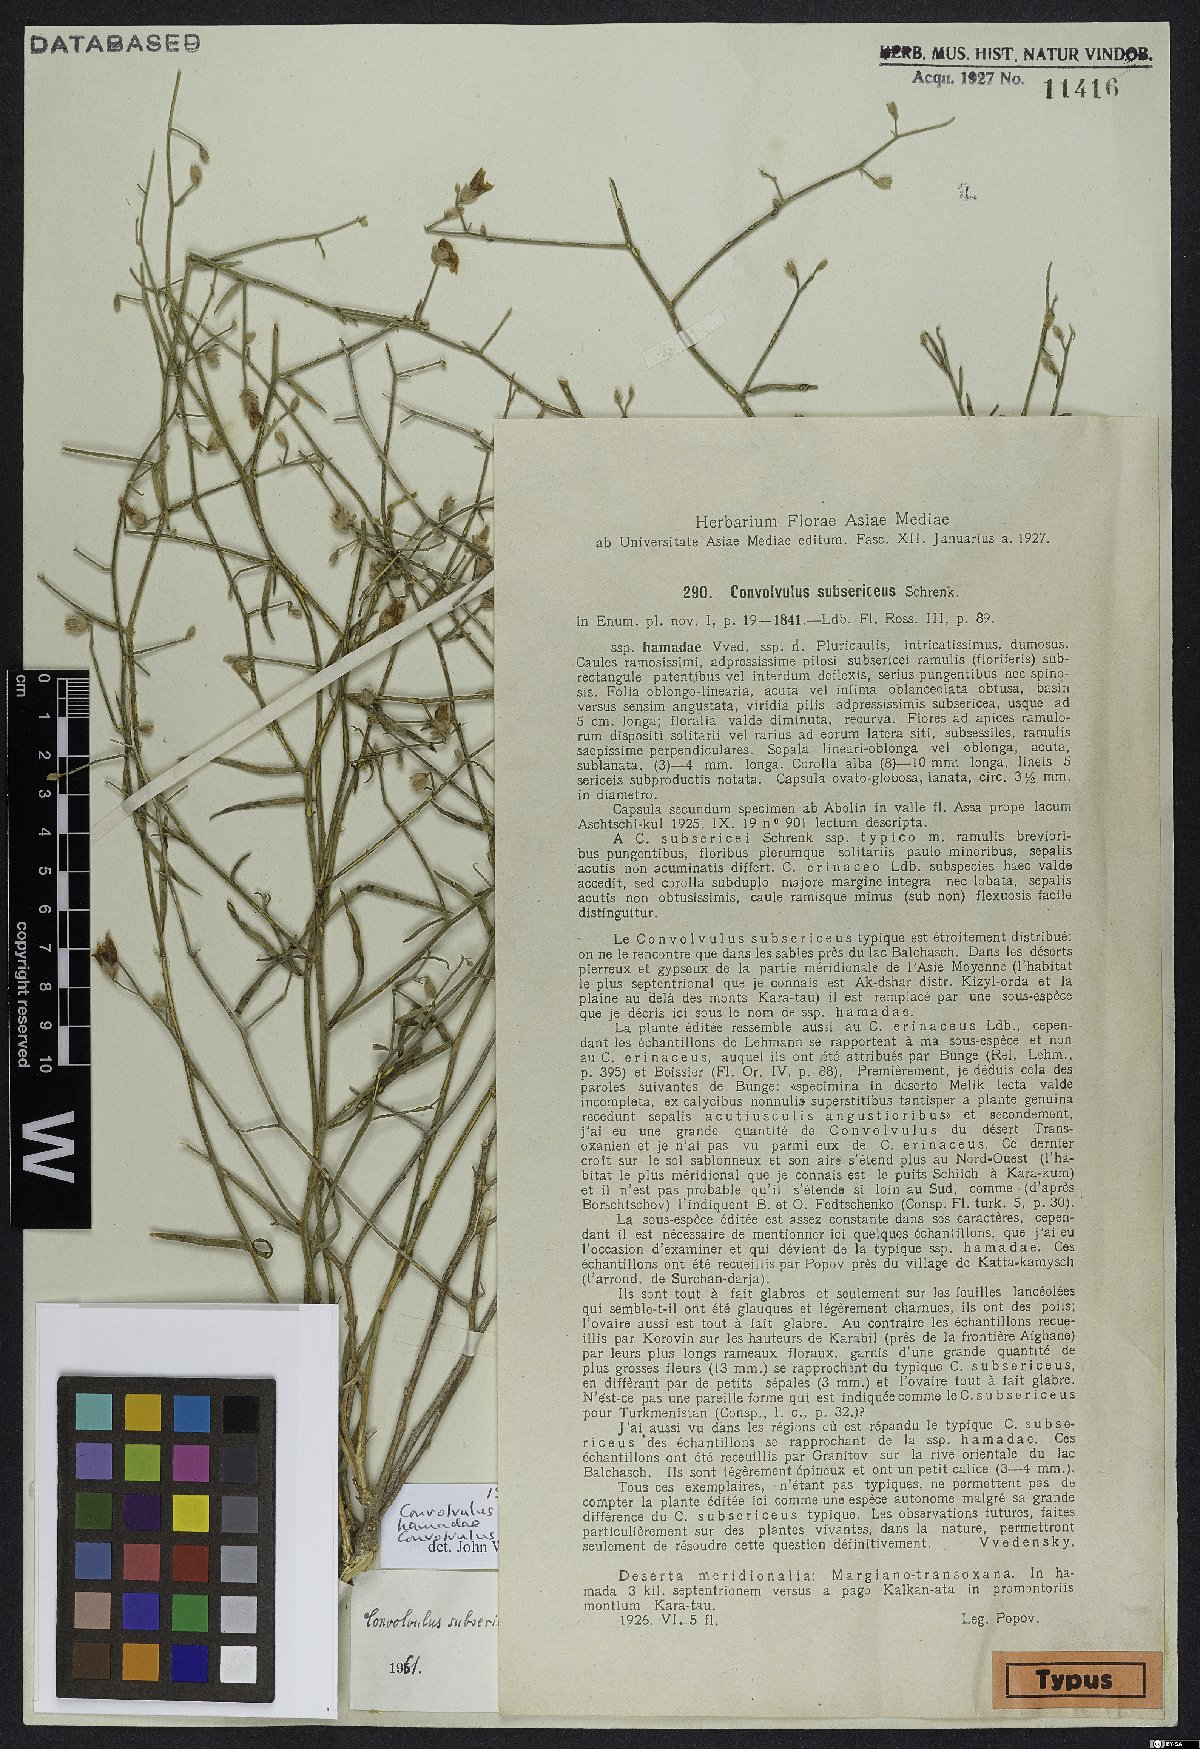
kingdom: Plantae
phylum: Tracheophyta
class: Magnoliopsida
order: Solanales
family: Convolvulaceae
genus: Convolvulus
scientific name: Convolvulus hamadae
